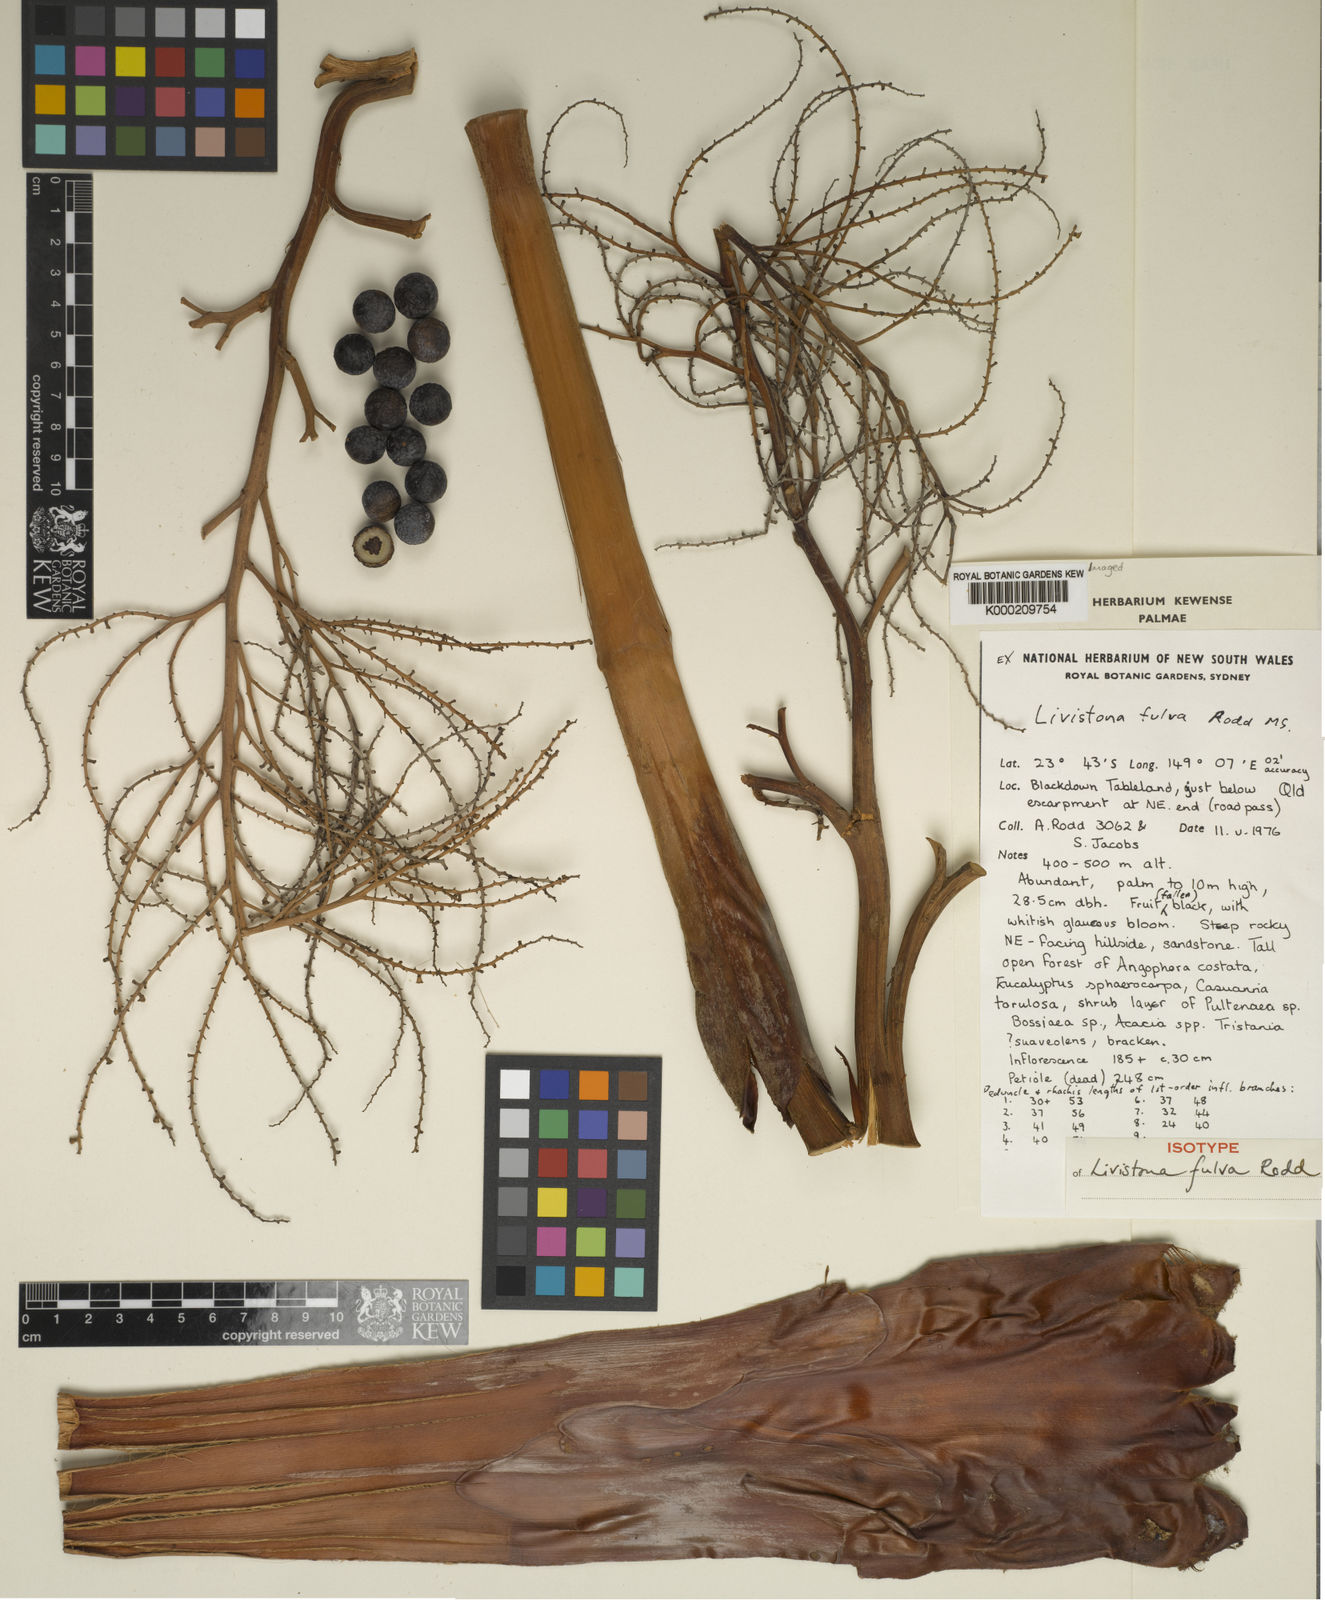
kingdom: Plantae
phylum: Tracheophyta
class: Liliopsida
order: Arecales
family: Arecaceae
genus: Livistona
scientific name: Livistona fulva
